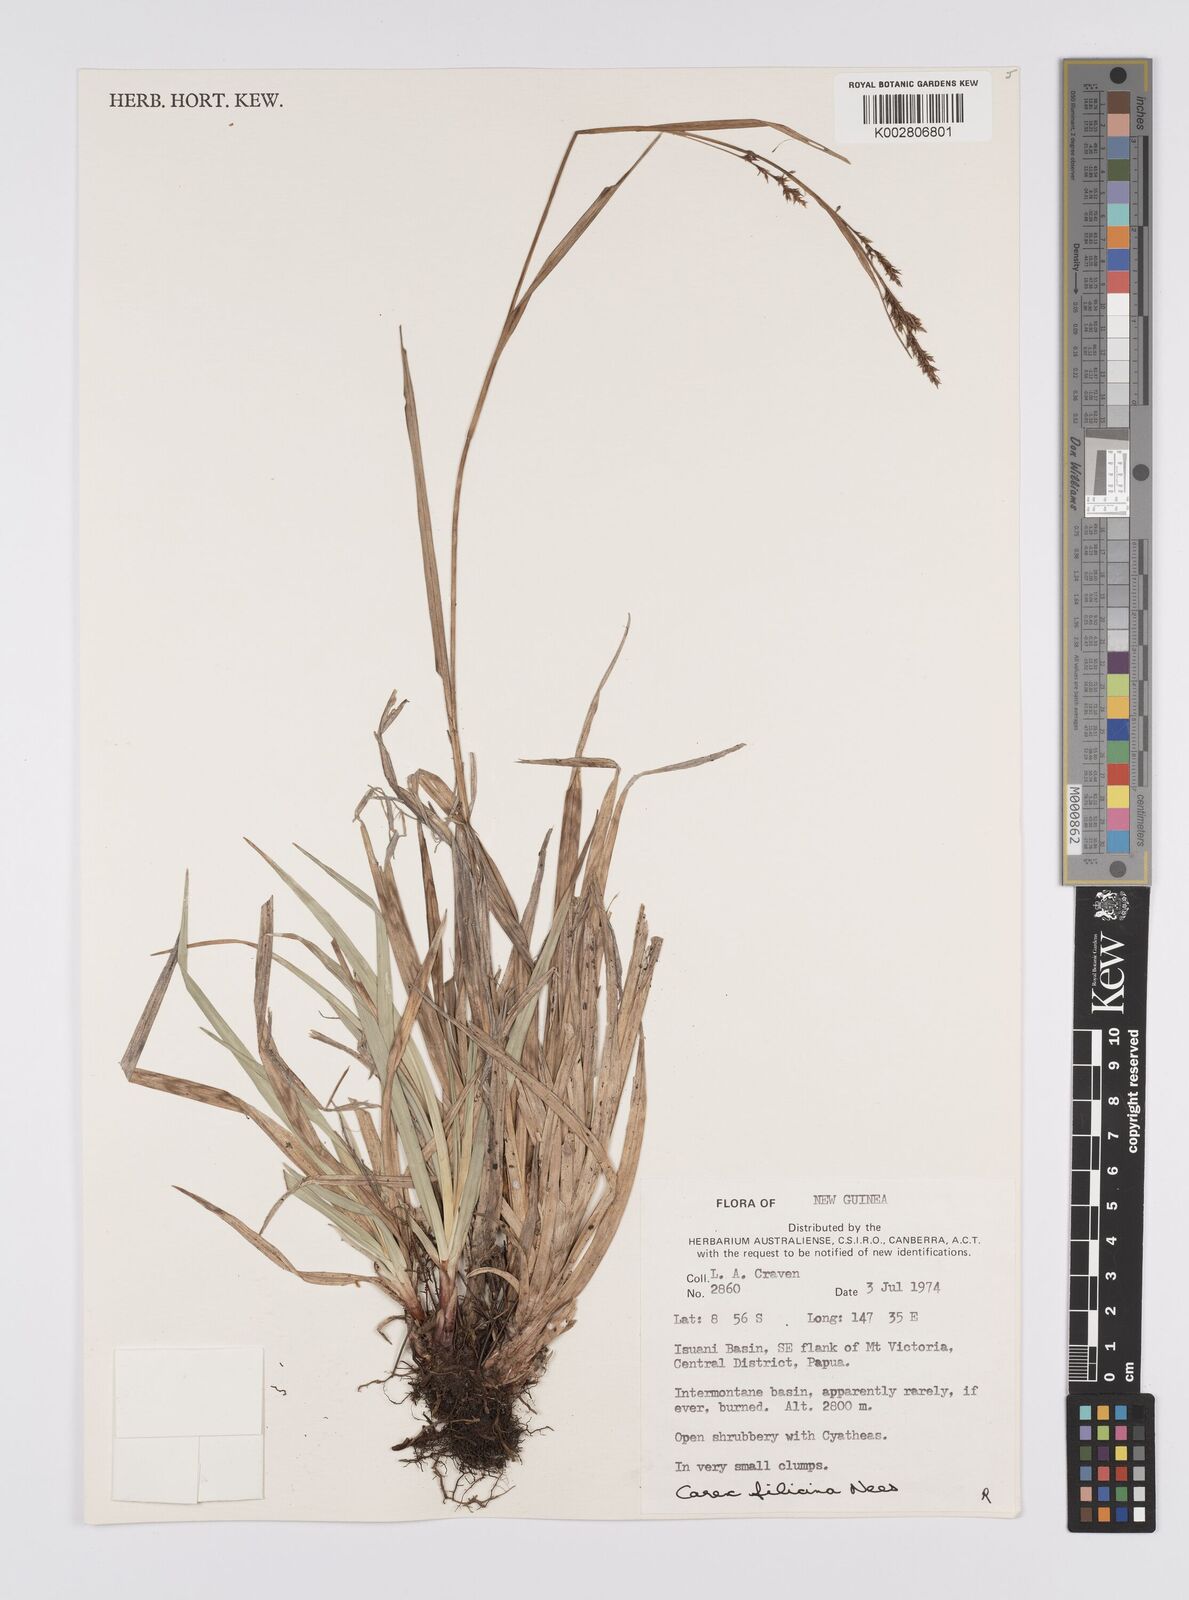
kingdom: Plantae
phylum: Tracheophyta
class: Liliopsida
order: Poales
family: Cyperaceae
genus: Carex
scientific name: Carex filicina
